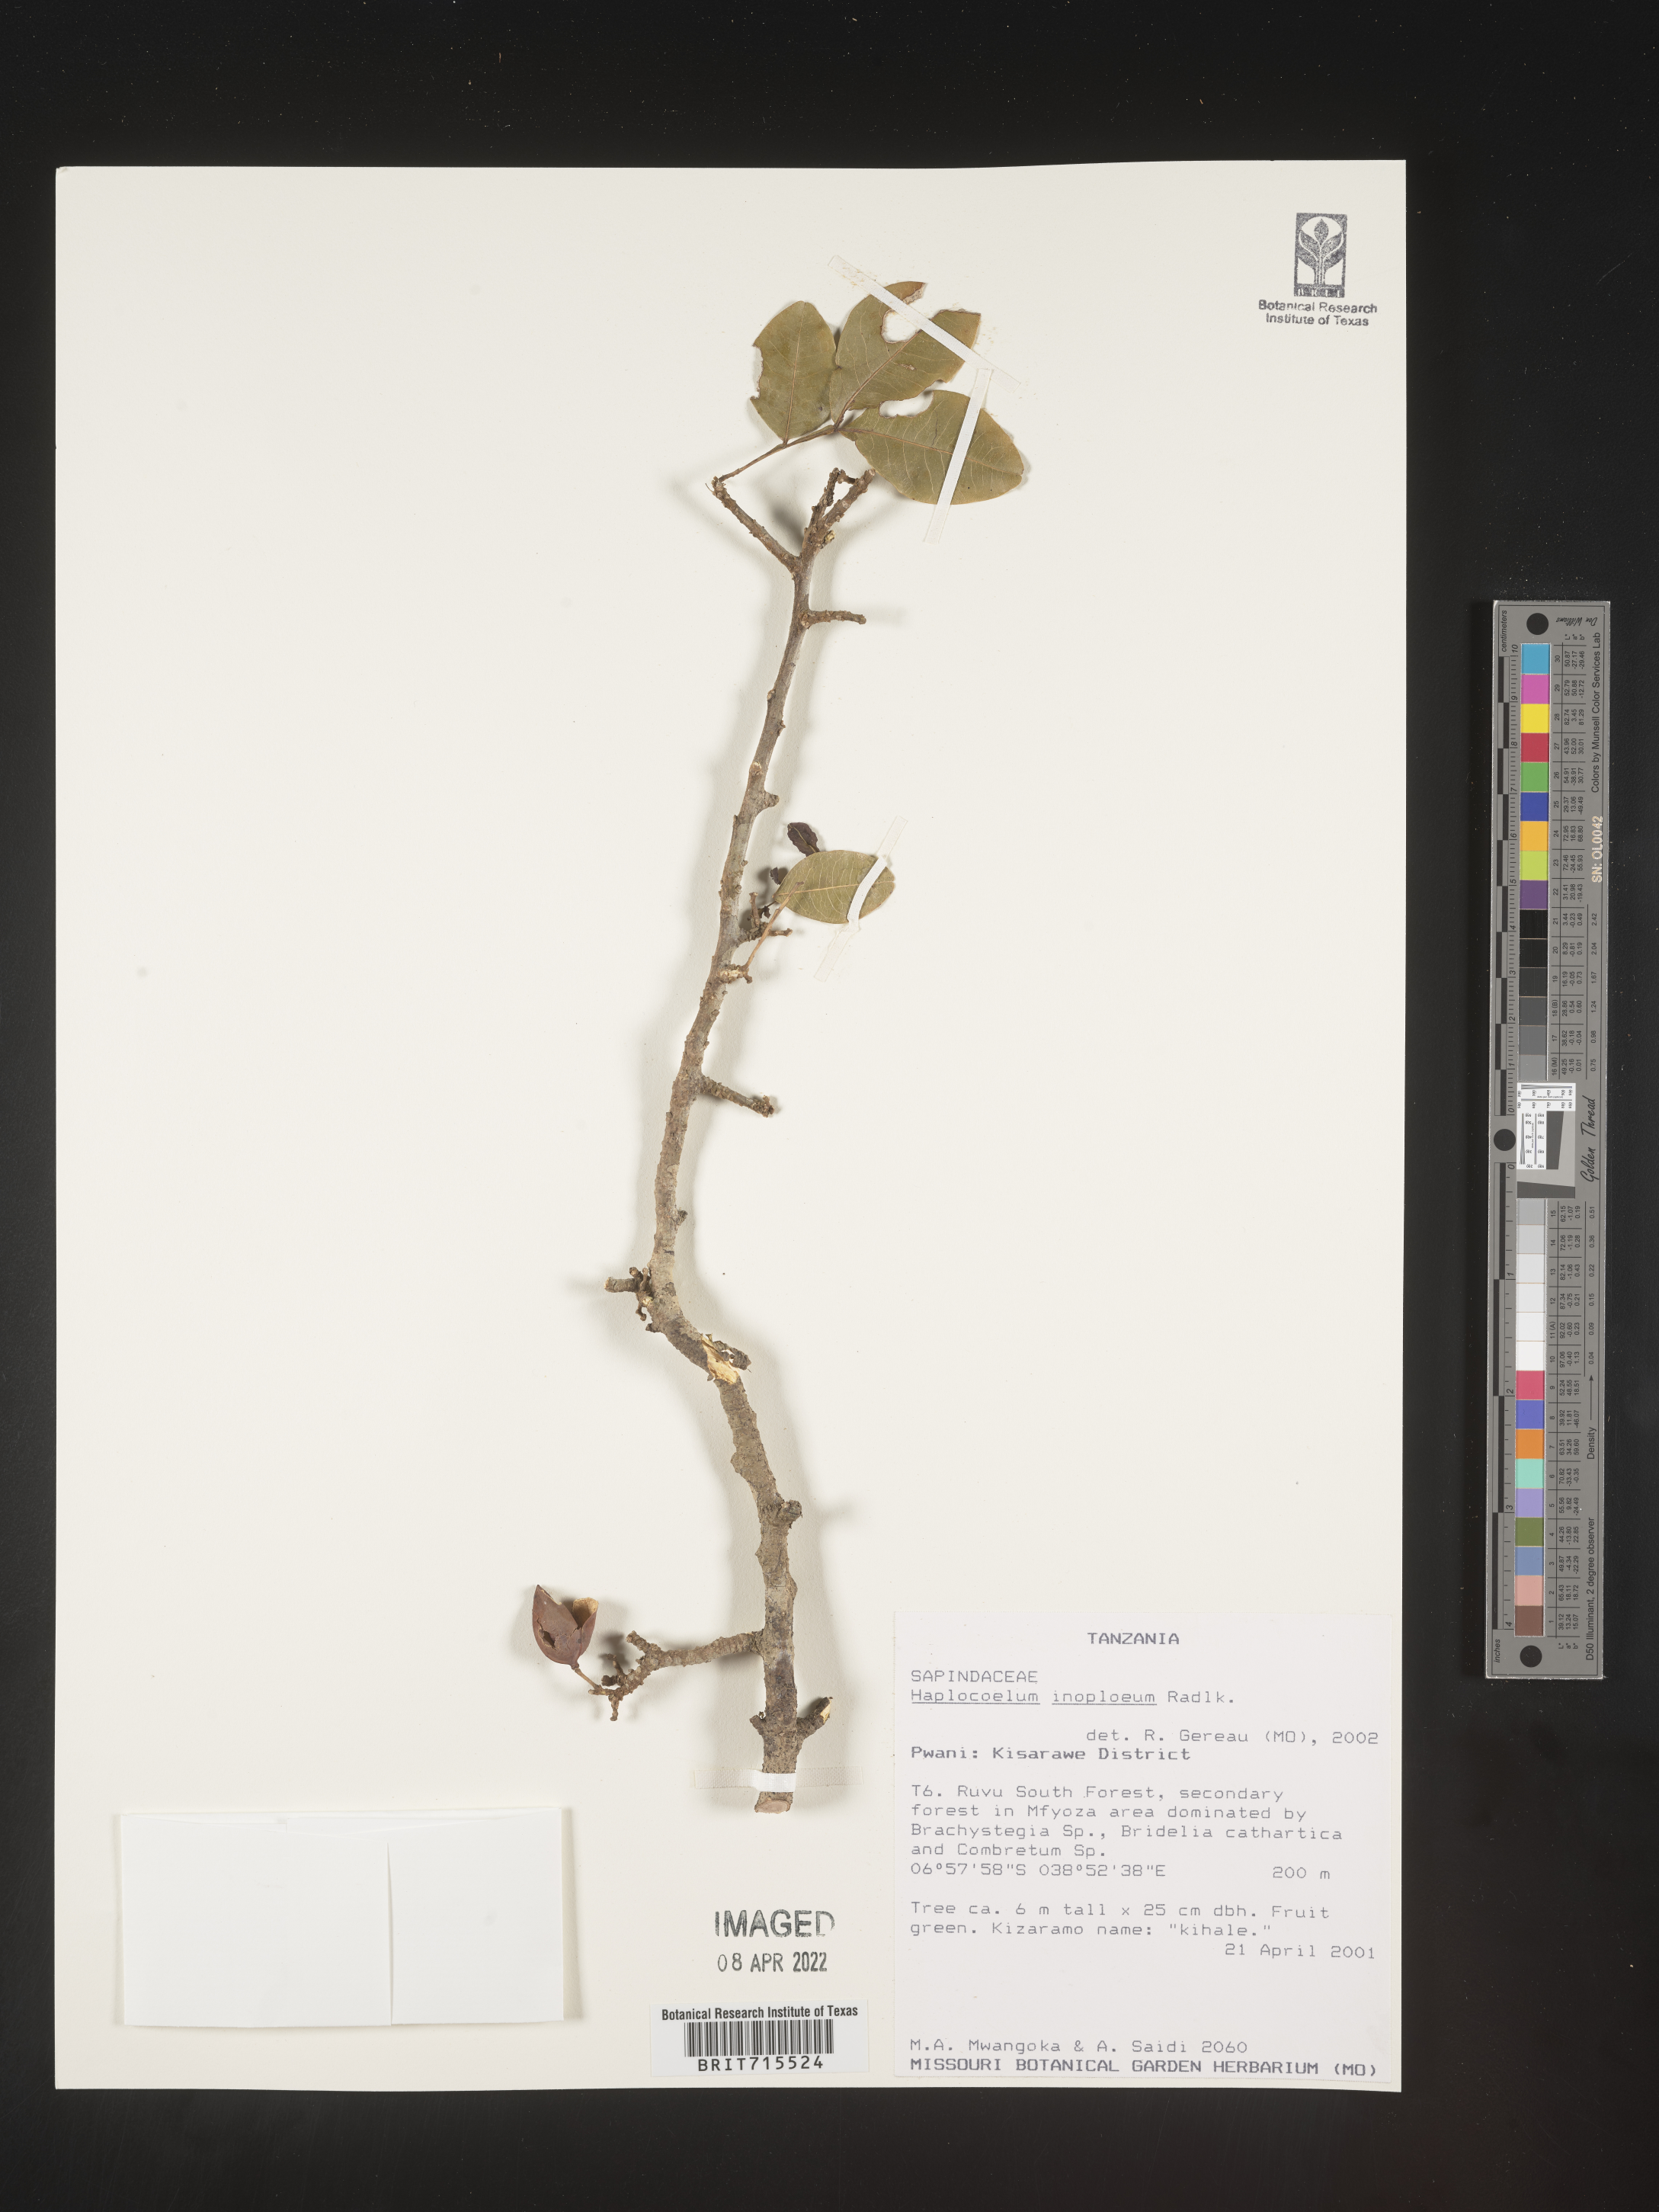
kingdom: Plantae
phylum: Tracheophyta
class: Magnoliopsida
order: Sapindales
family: Sapindaceae
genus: Haplocoelum
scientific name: Haplocoelum
